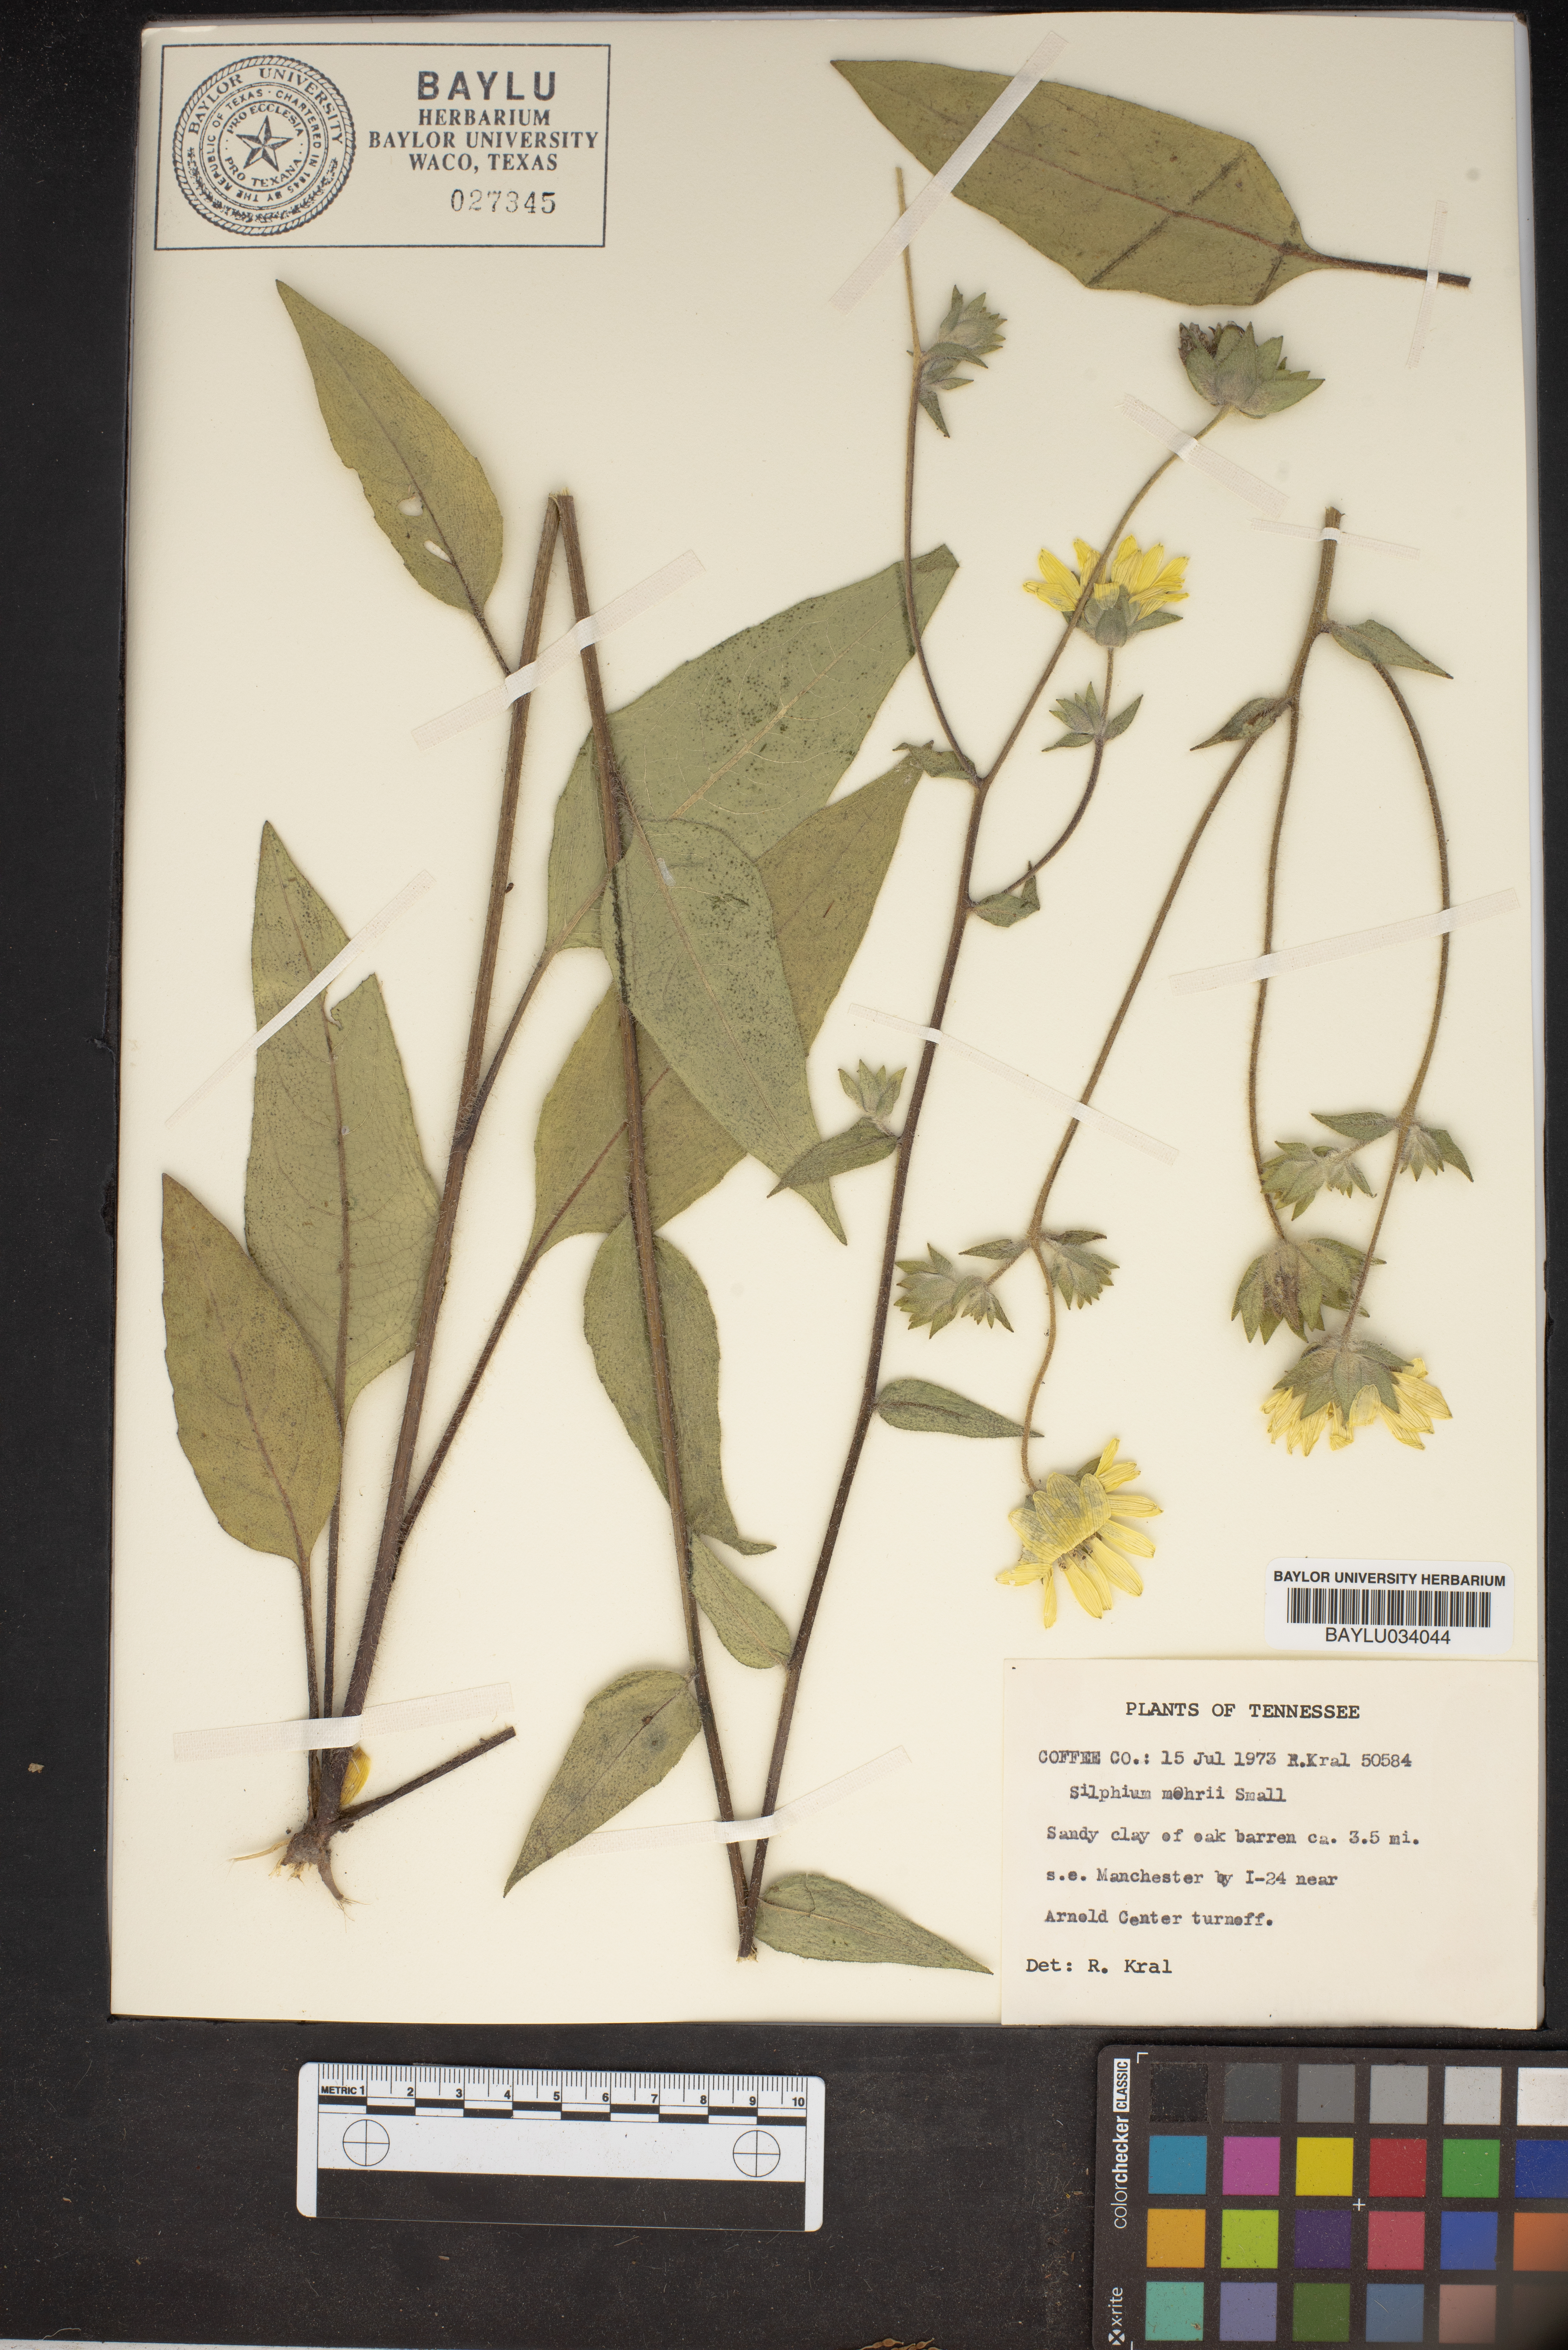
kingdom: Plantae
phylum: Tracheophyta
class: Magnoliopsida
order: Asterales
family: Asteraceae
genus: Silphium
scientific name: Silphium mohrii
